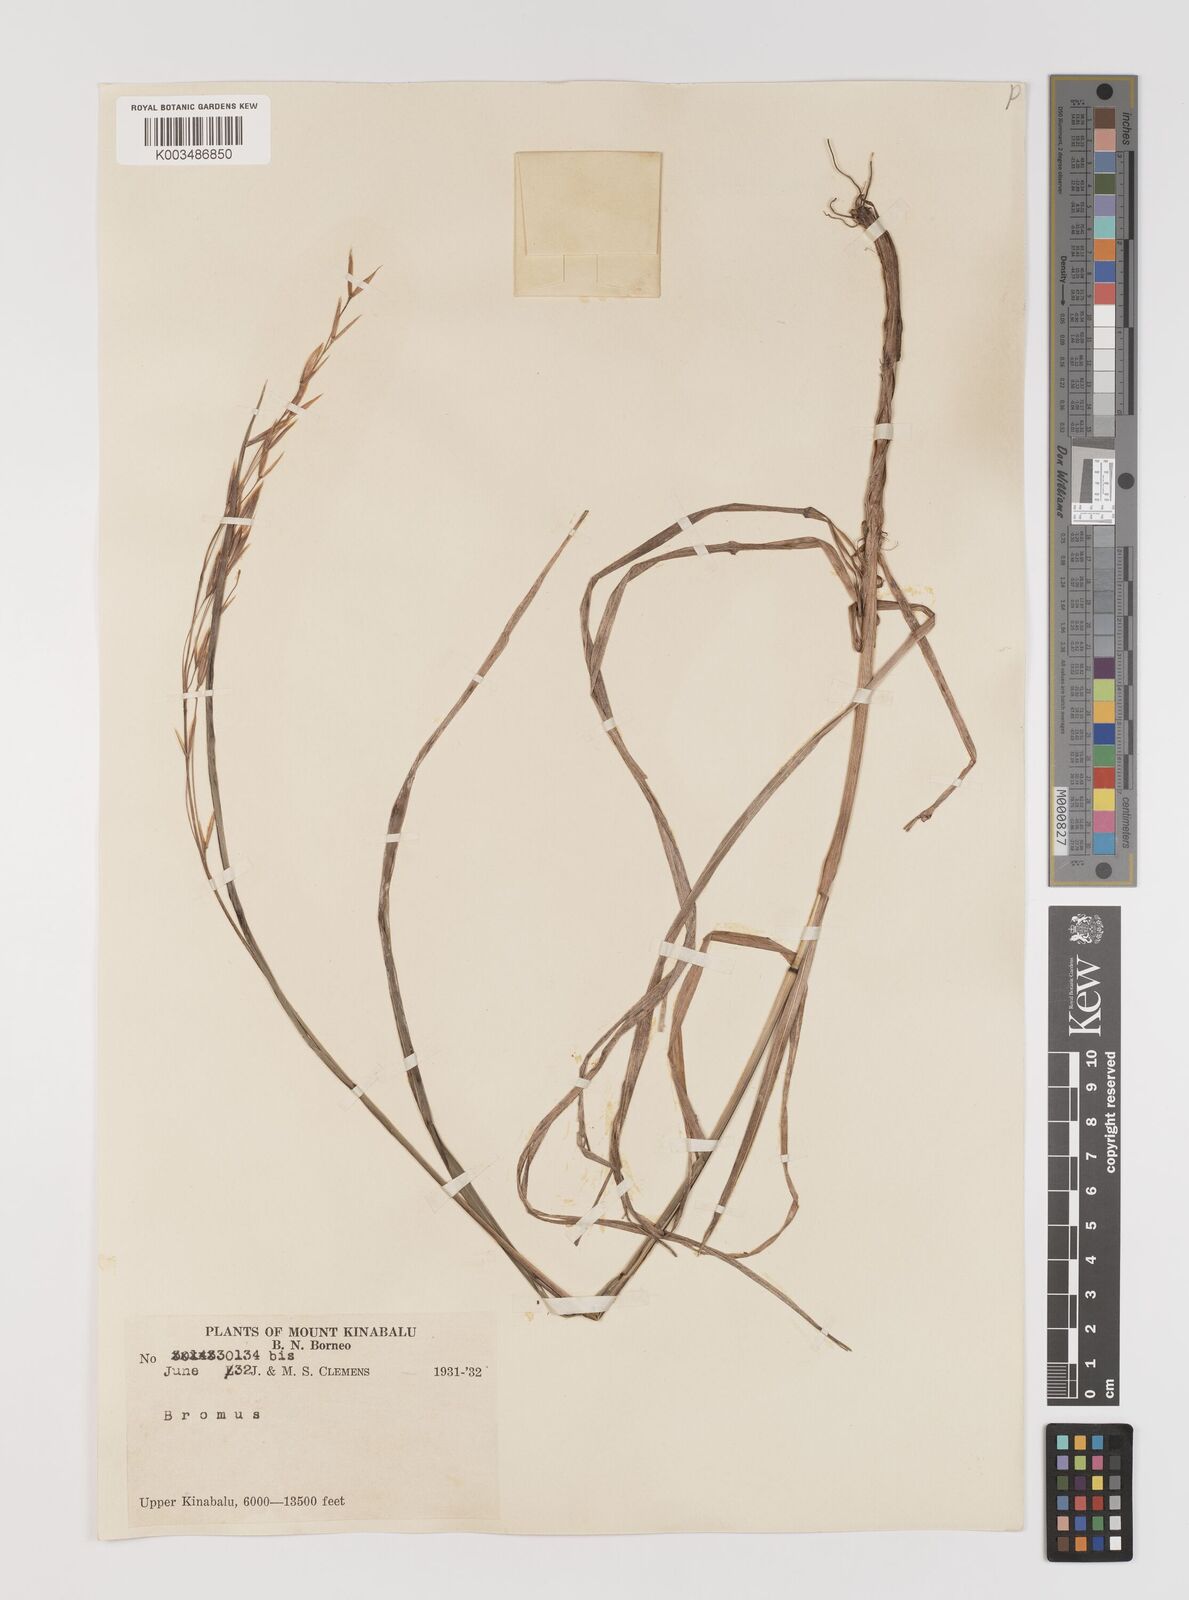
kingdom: Plantae
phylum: Tracheophyta
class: Liliopsida
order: Poales
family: Poaceae
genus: Bromus
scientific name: Bromus formosanus
